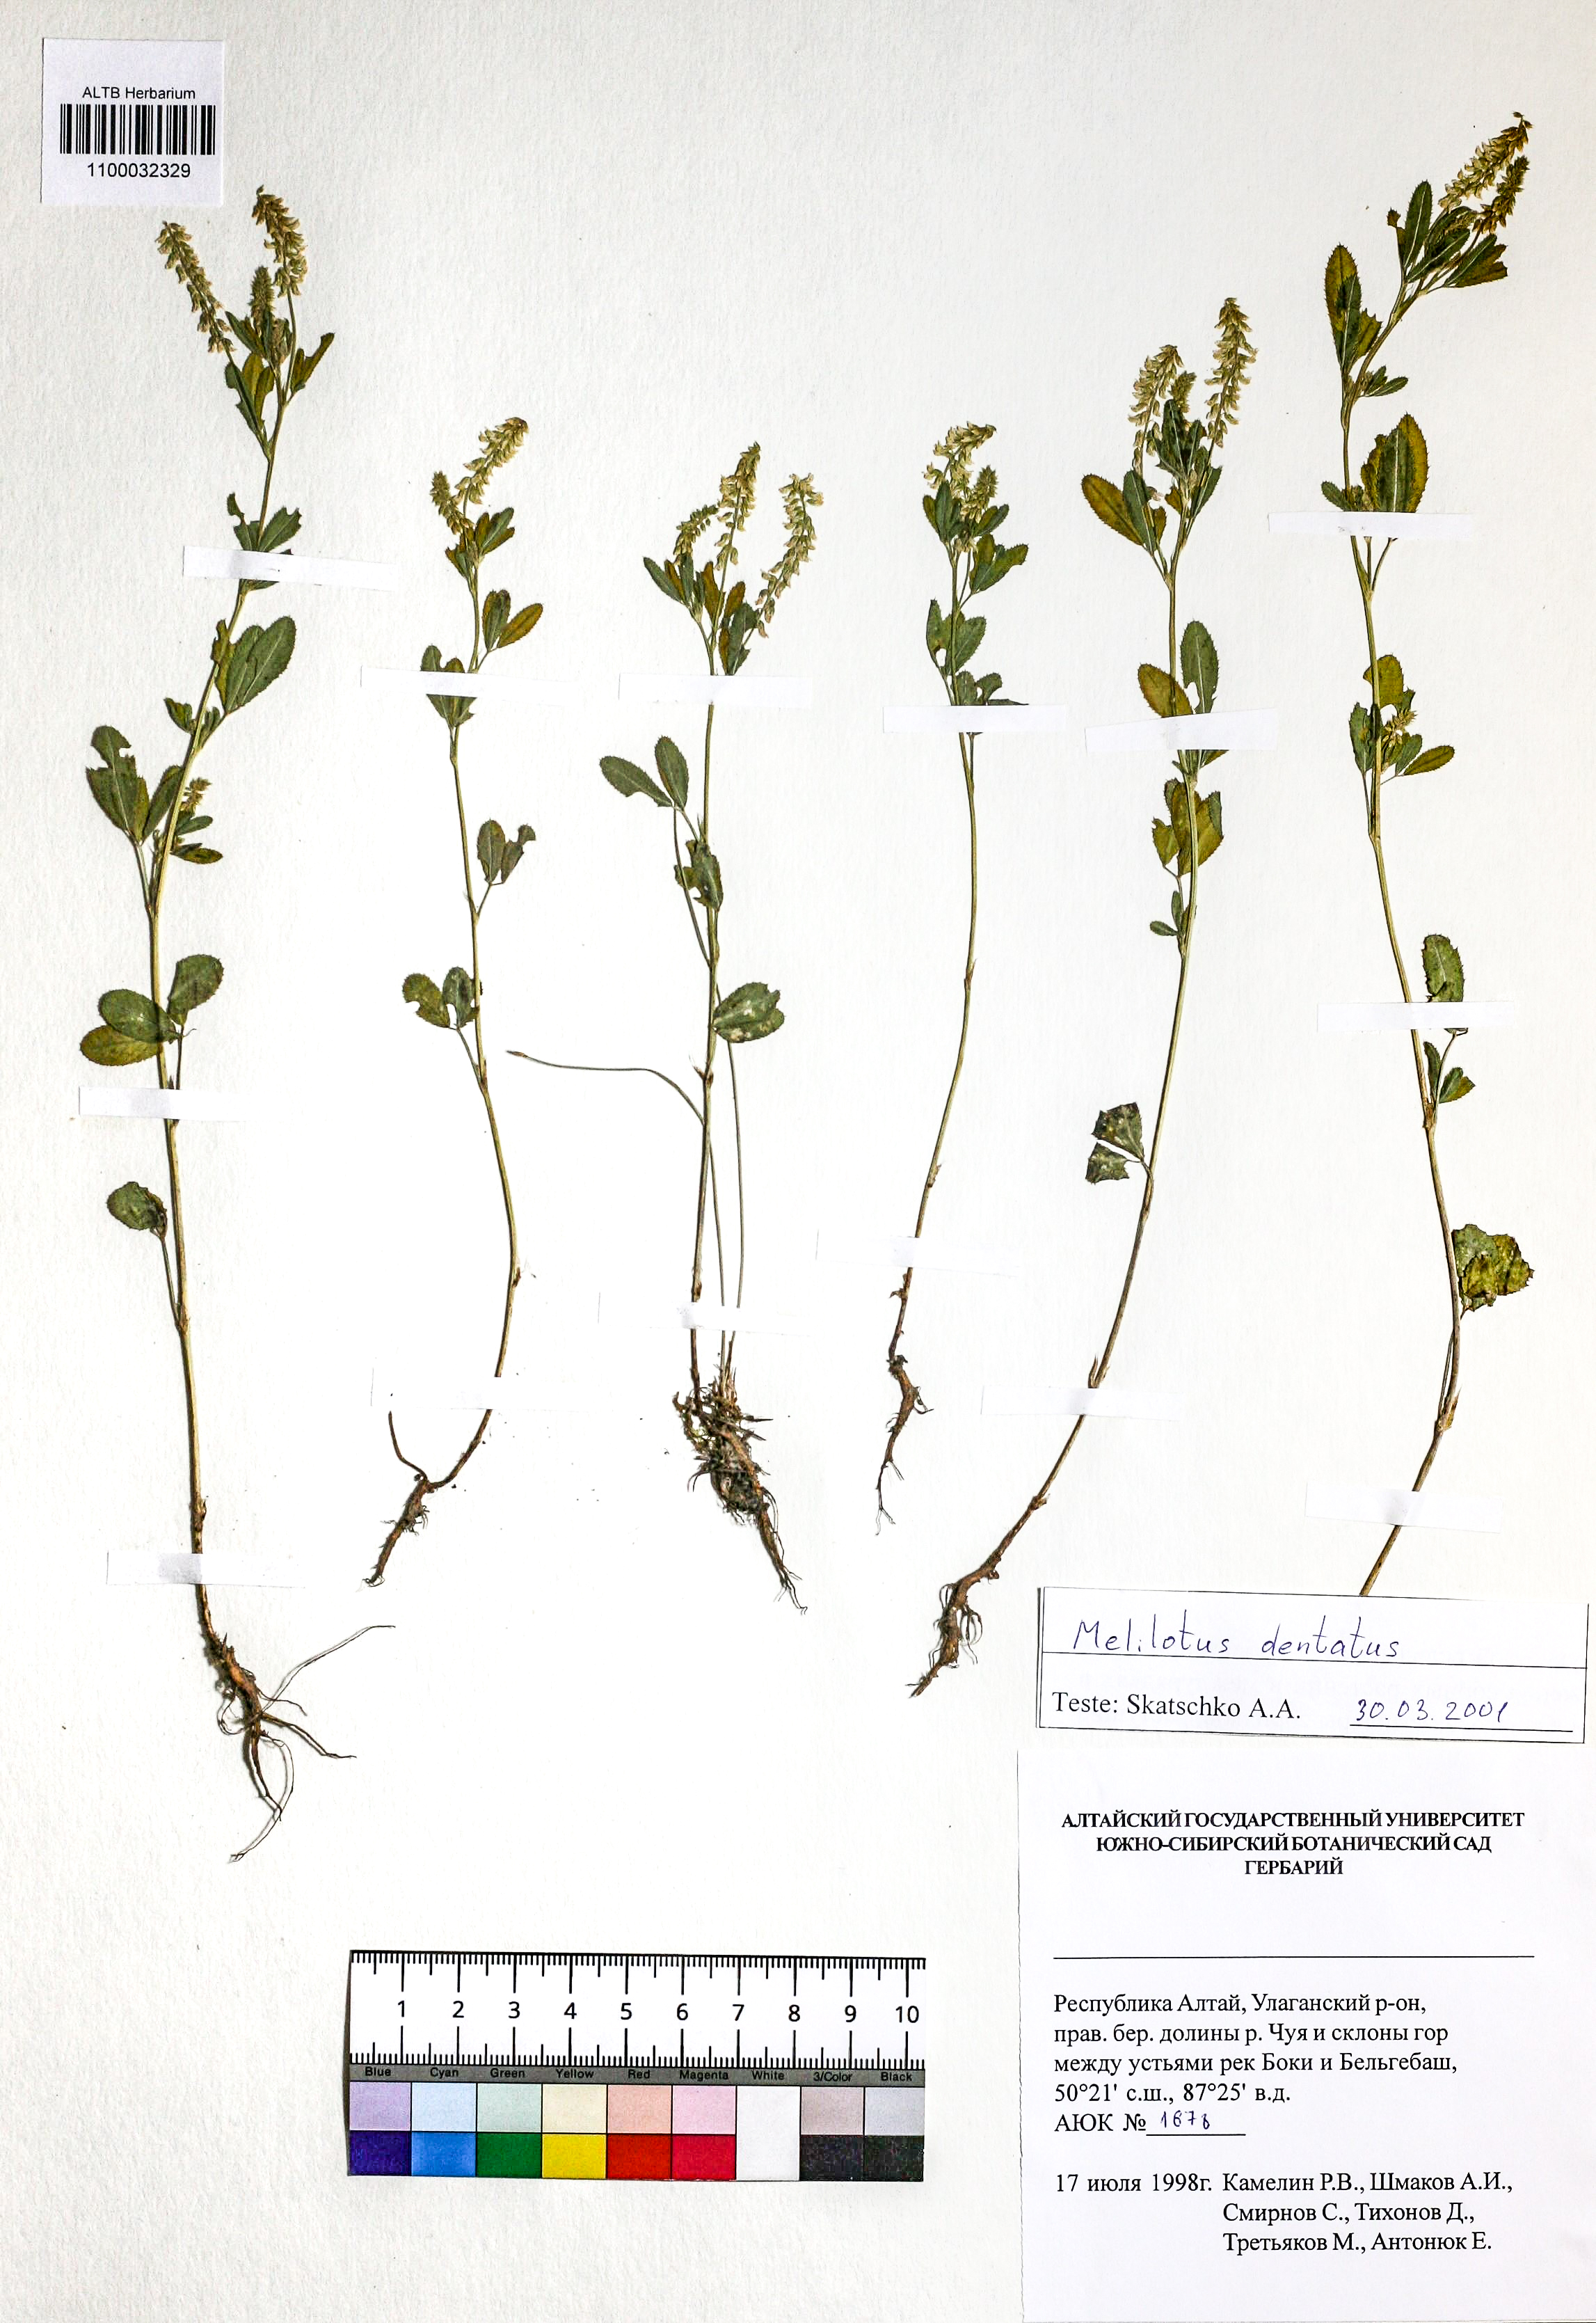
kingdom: Plantae
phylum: Tracheophyta
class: Magnoliopsida
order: Fabales
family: Fabaceae
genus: Melilotus
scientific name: Melilotus dentatus
